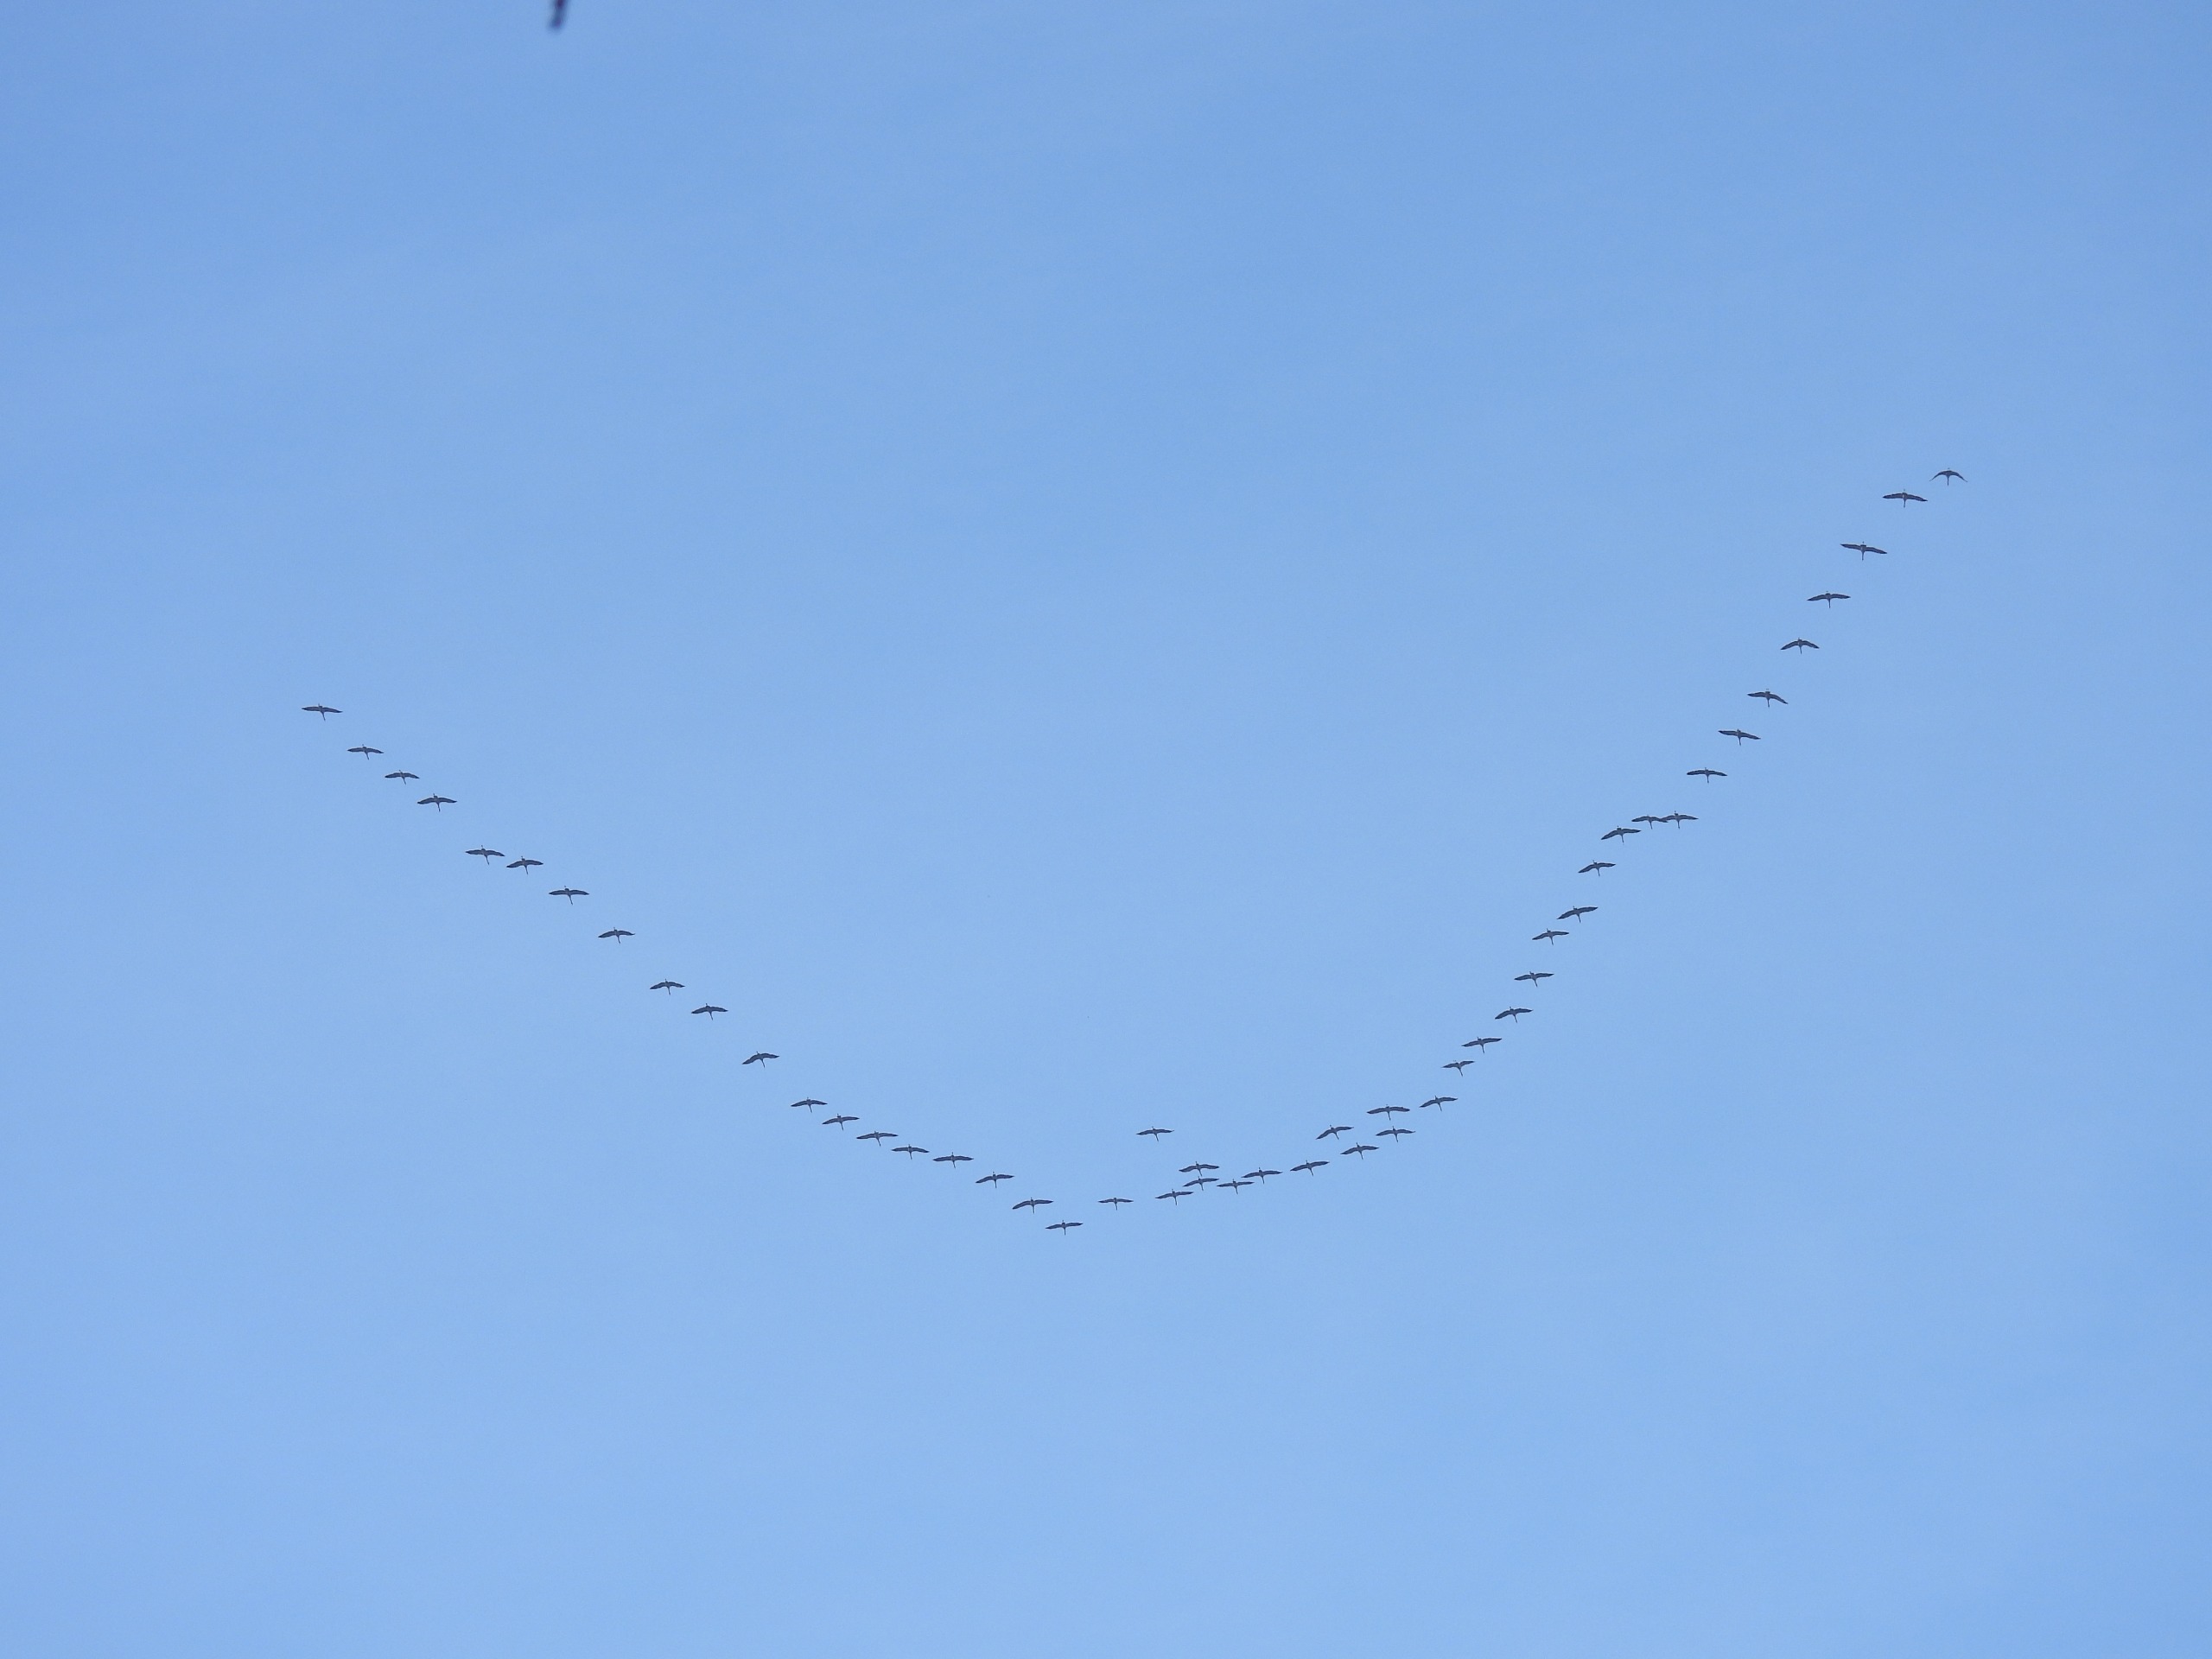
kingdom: Animalia
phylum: Chordata
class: Aves
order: Gruiformes
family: Gruidae
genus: Grus
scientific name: Grus grus
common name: Trane
